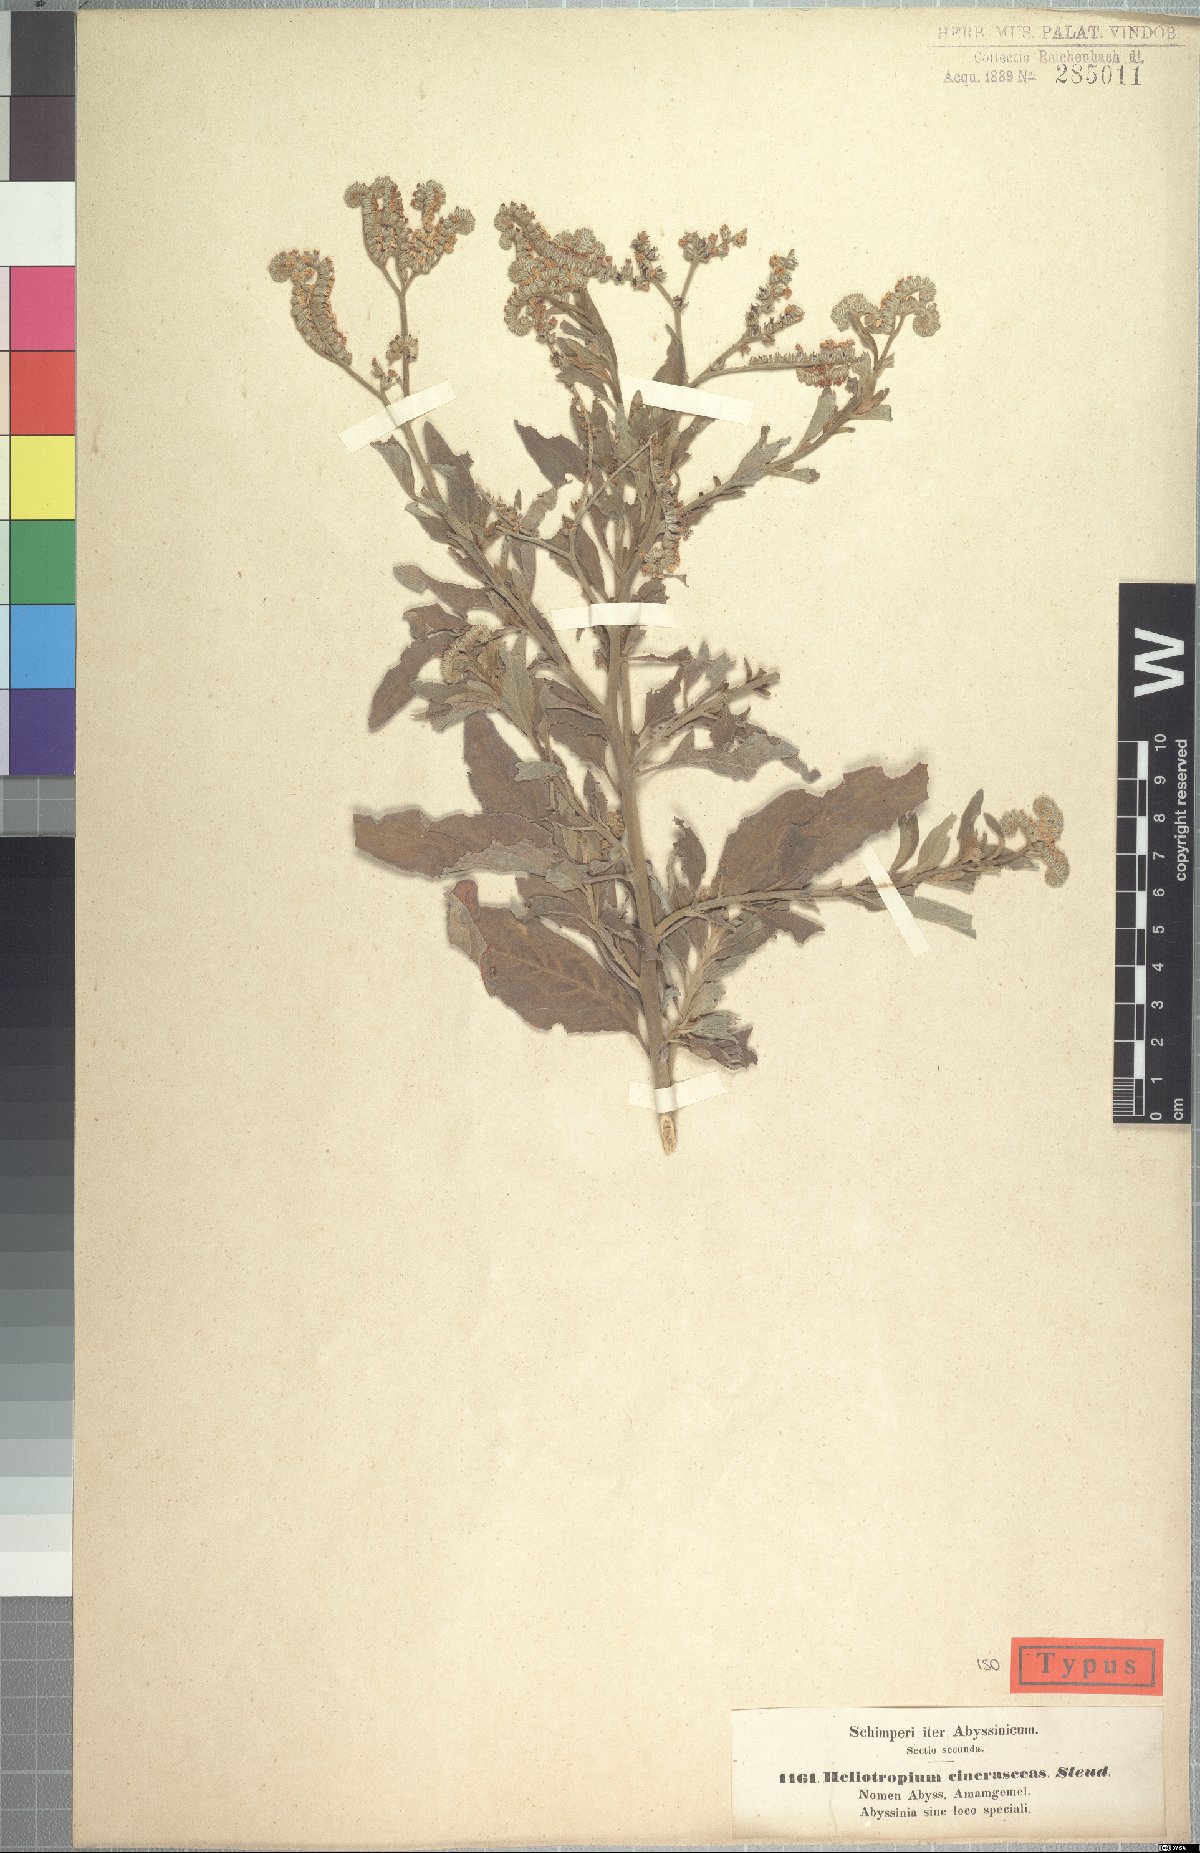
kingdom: Plantae
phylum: Tracheophyta
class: Magnoliopsida
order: Boraginales
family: Heliotropiaceae
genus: Heliotropium
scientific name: Heliotropium aegyptiacum
